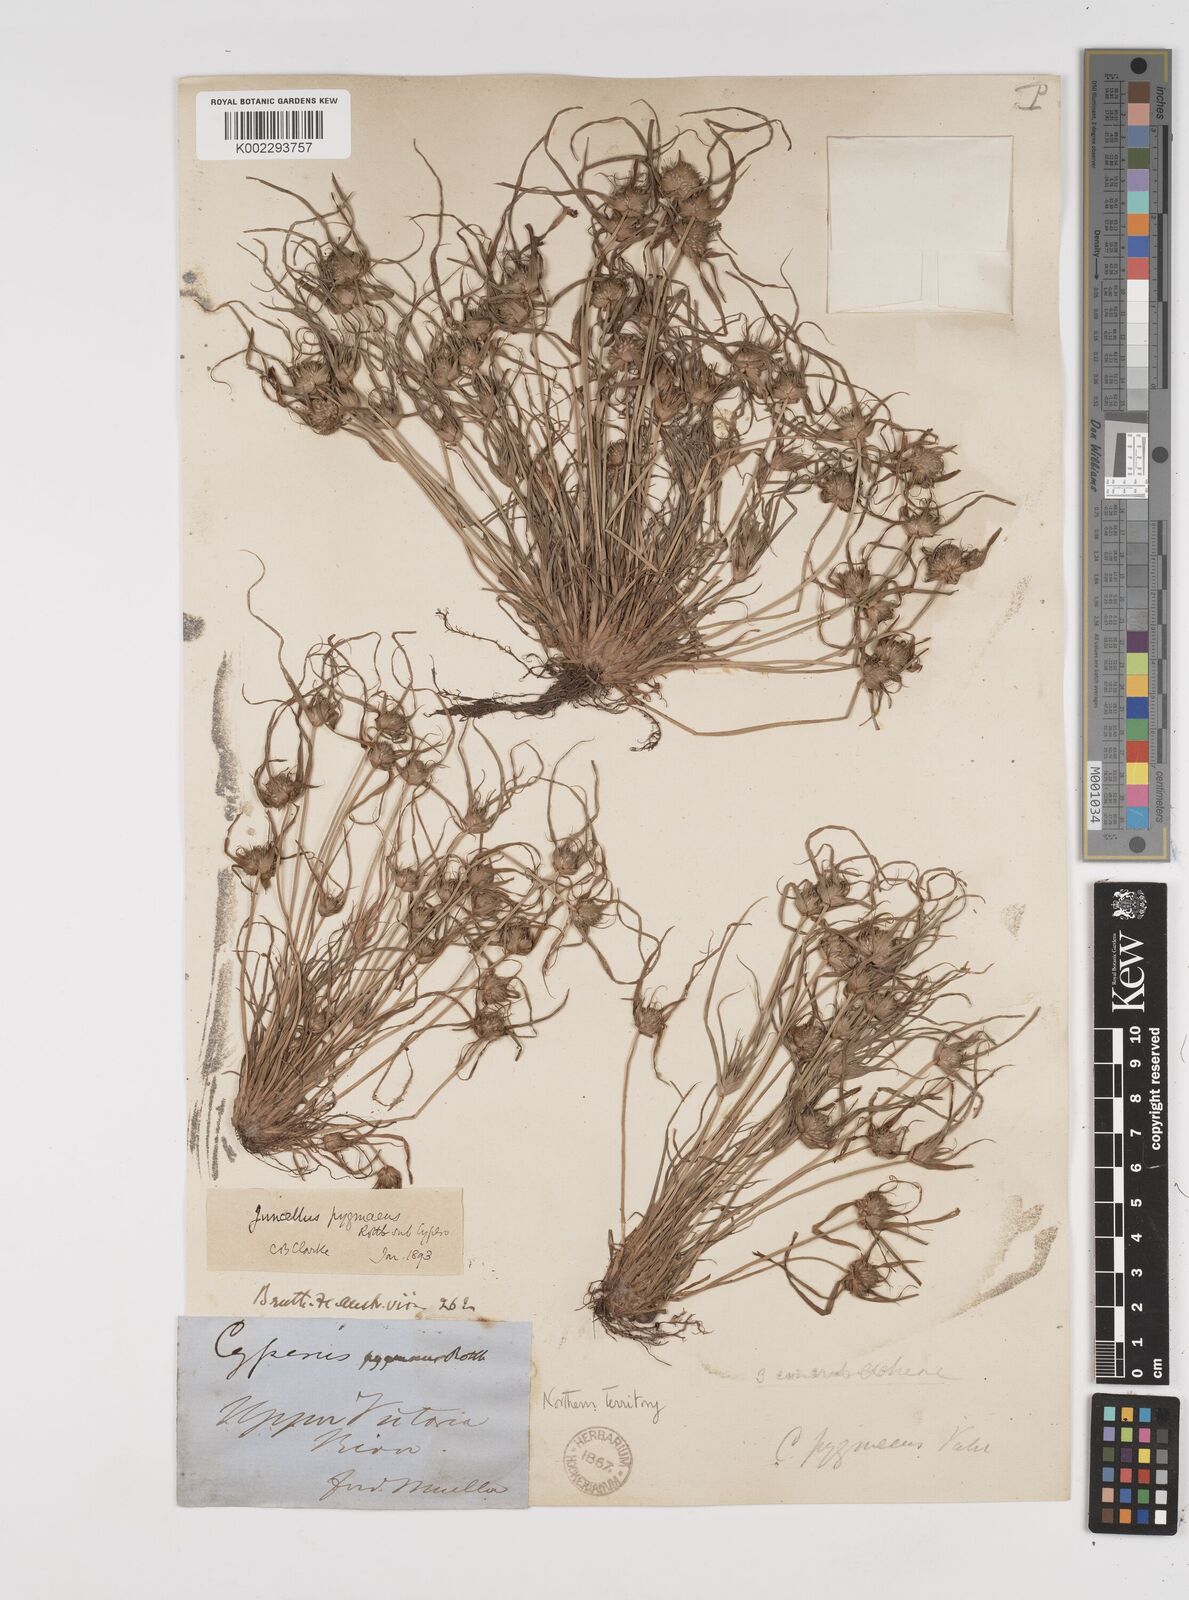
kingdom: Plantae
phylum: Tracheophyta
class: Liliopsida
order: Poales
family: Cyperaceae
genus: Cyperus
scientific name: Cyperus michelianus
